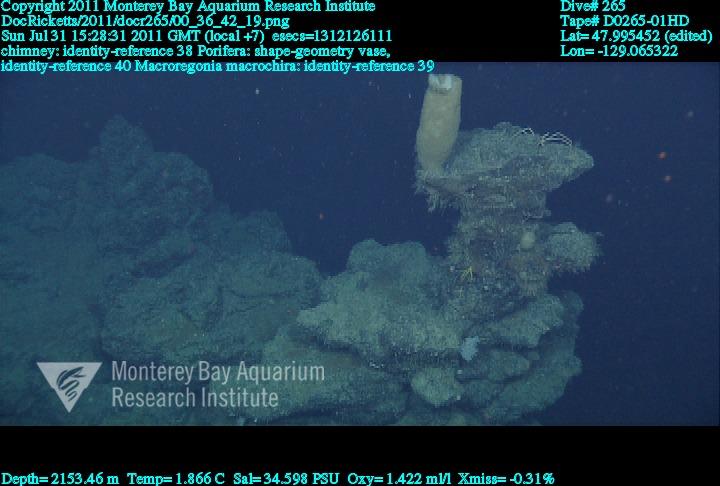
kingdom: Animalia
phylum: Porifera
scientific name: Porifera
